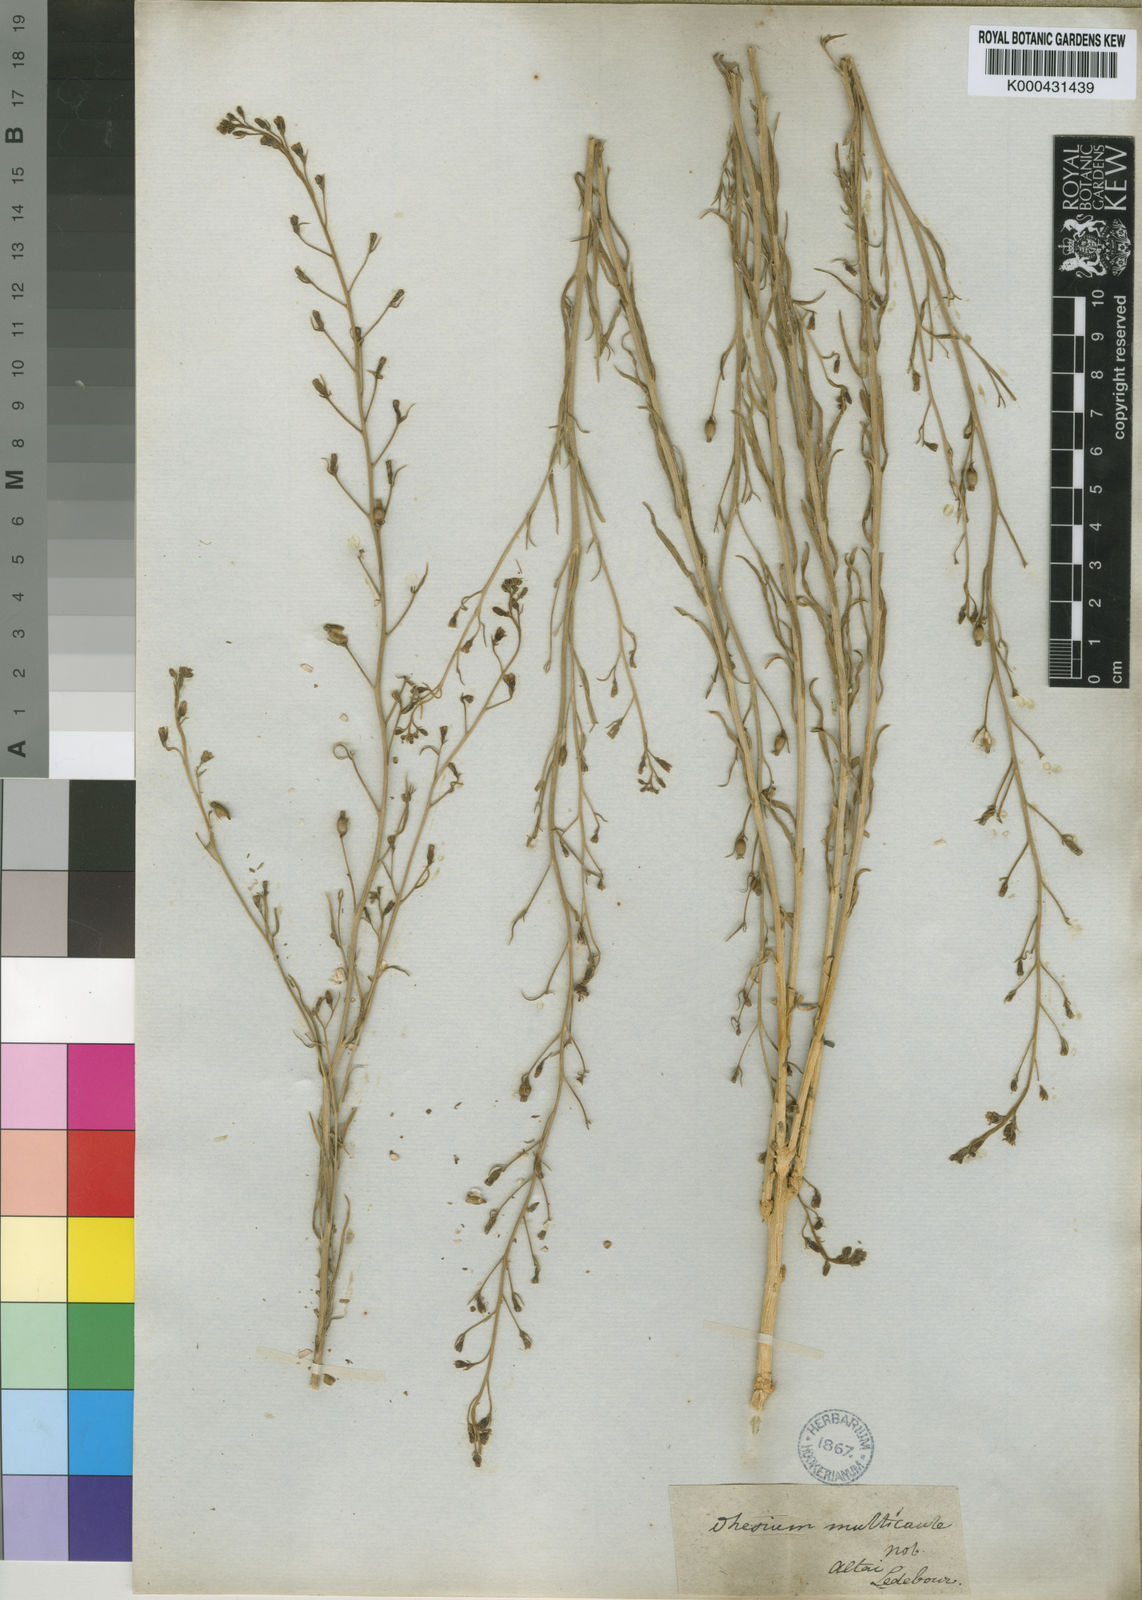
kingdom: Plantae
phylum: Tracheophyta
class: Magnoliopsida
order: Santalales
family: Thesiaceae
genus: Thesium
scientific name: Thesium multicaule
